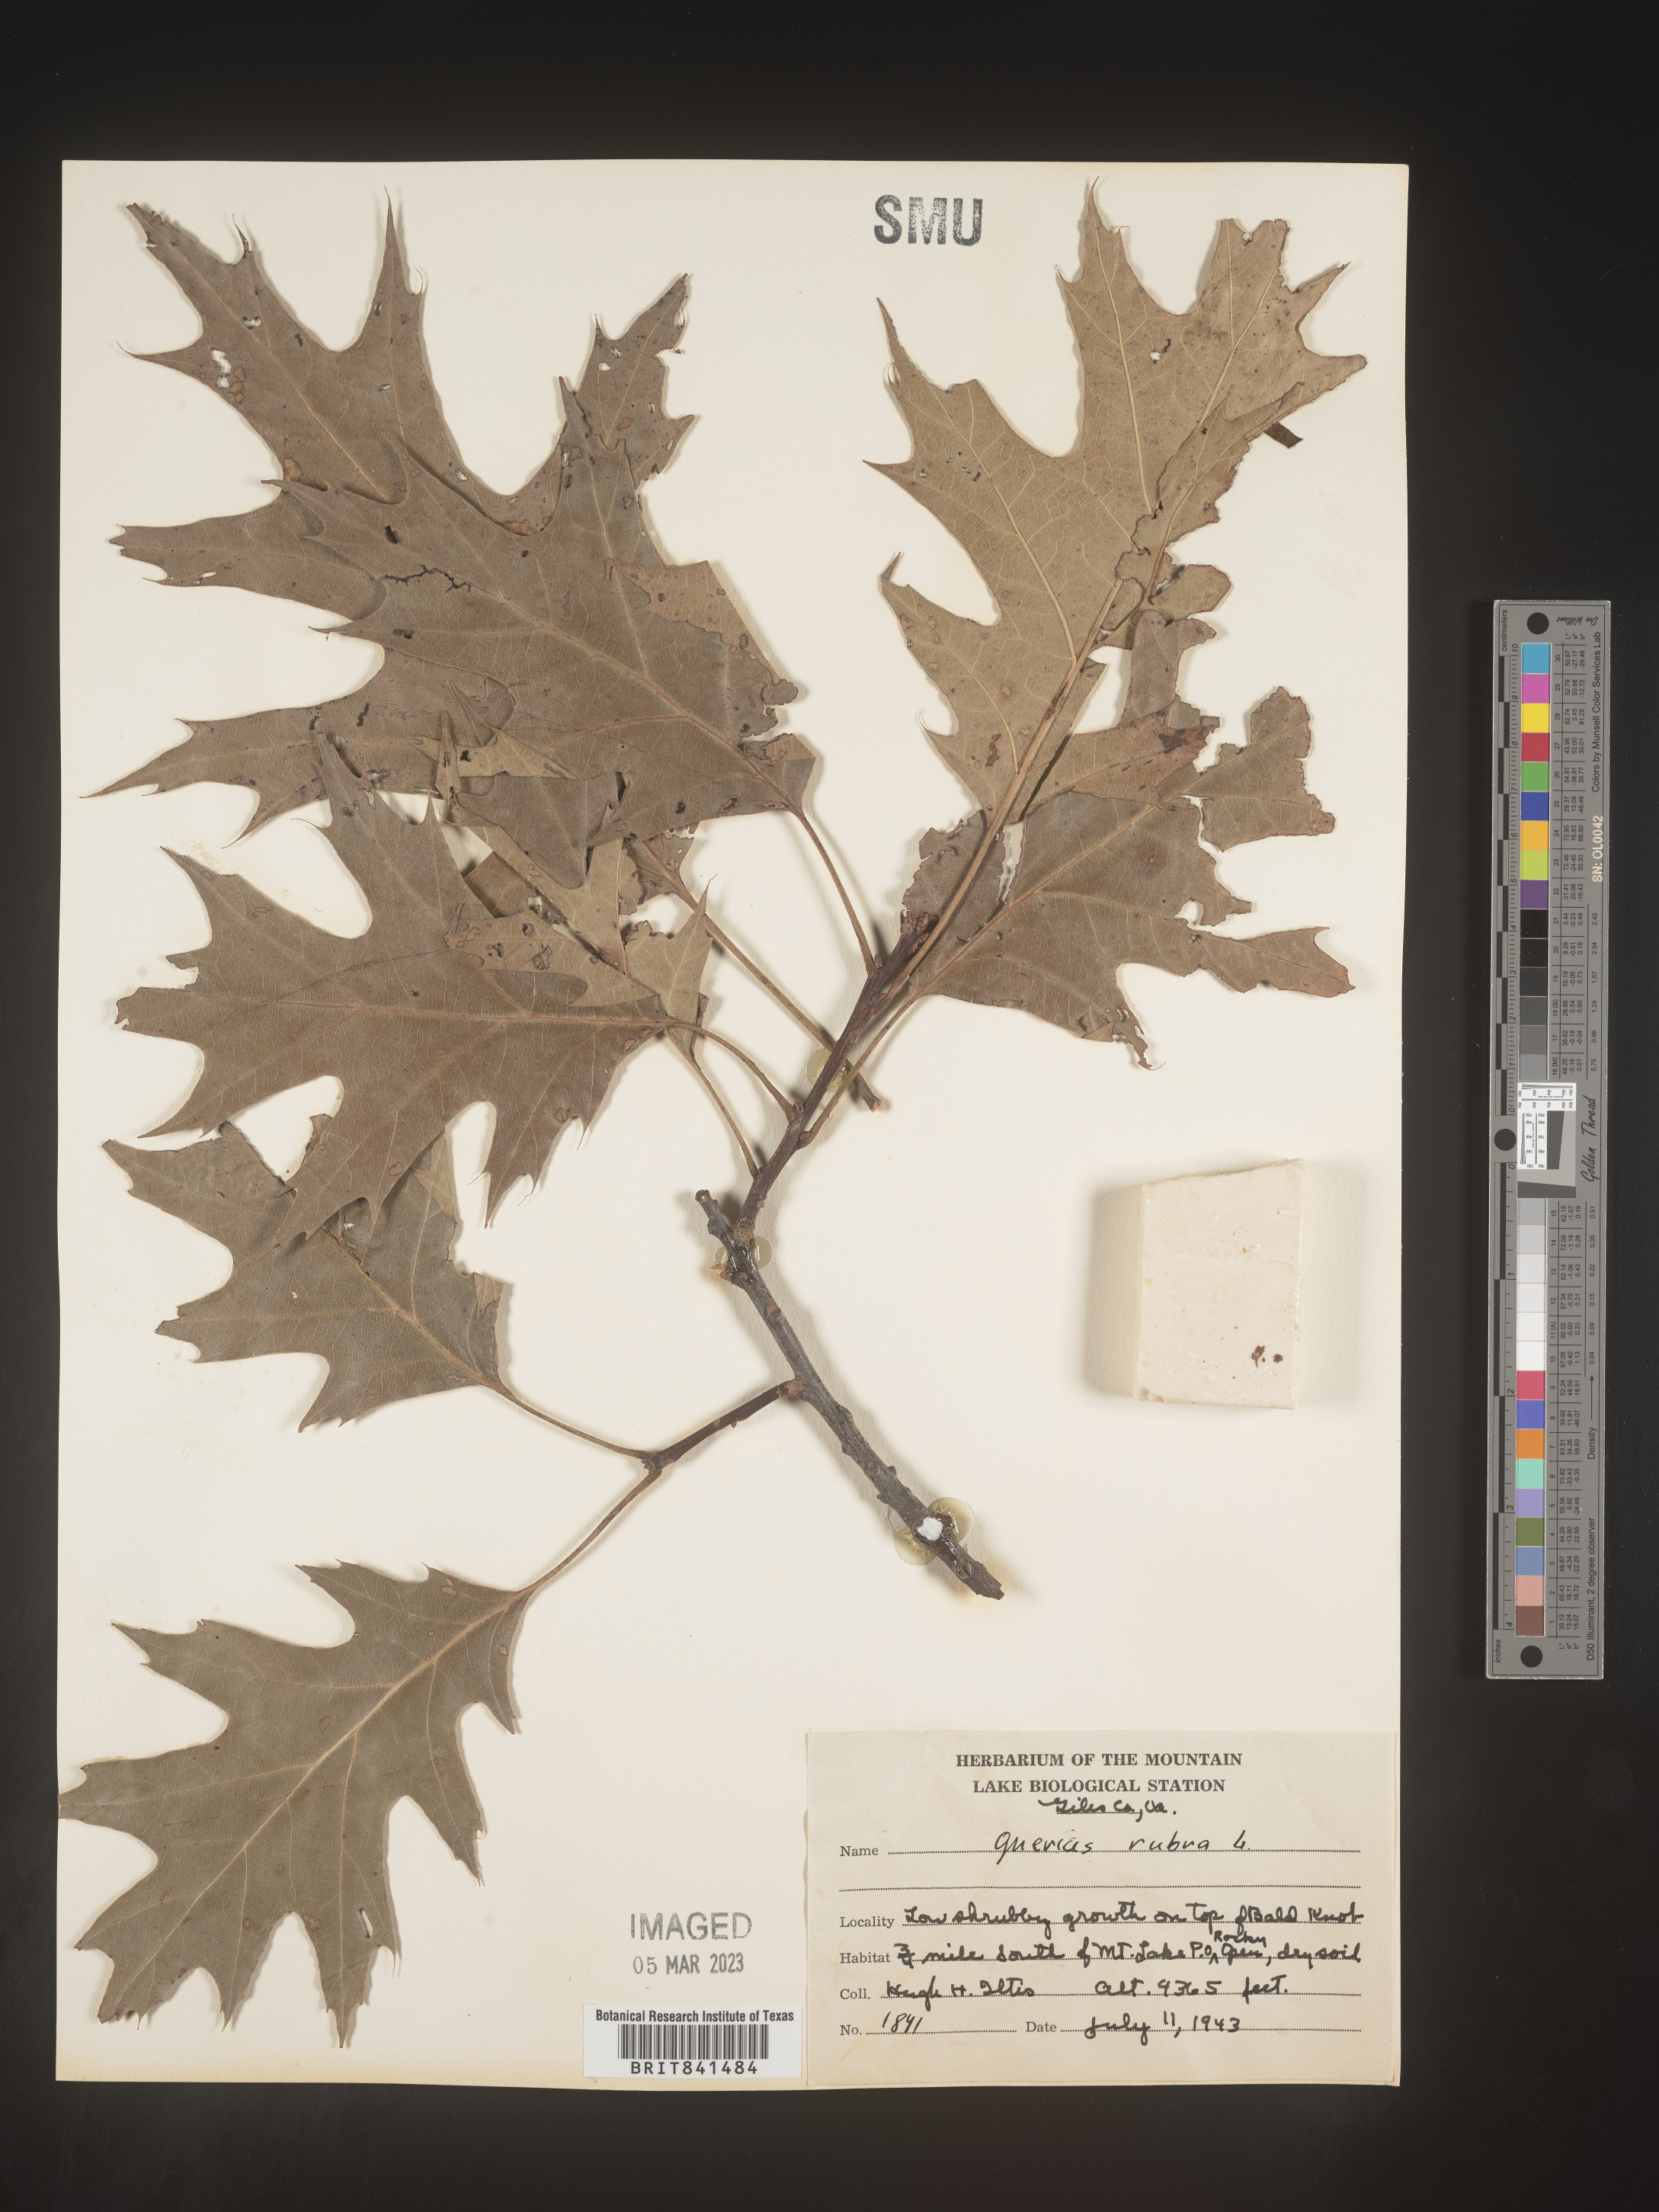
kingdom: Plantae
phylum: Tracheophyta
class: Magnoliopsida
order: Fagales
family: Fagaceae
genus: Quercus
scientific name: Quercus rubra
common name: Red oak
